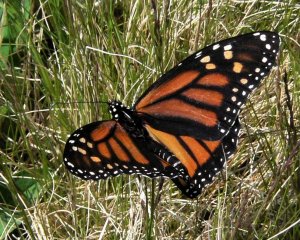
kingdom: Animalia
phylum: Arthropoda
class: Insecta
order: Lepidoptera
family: Nymphalidae
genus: Danaus
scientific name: Danaus plexippus
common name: Monarch
